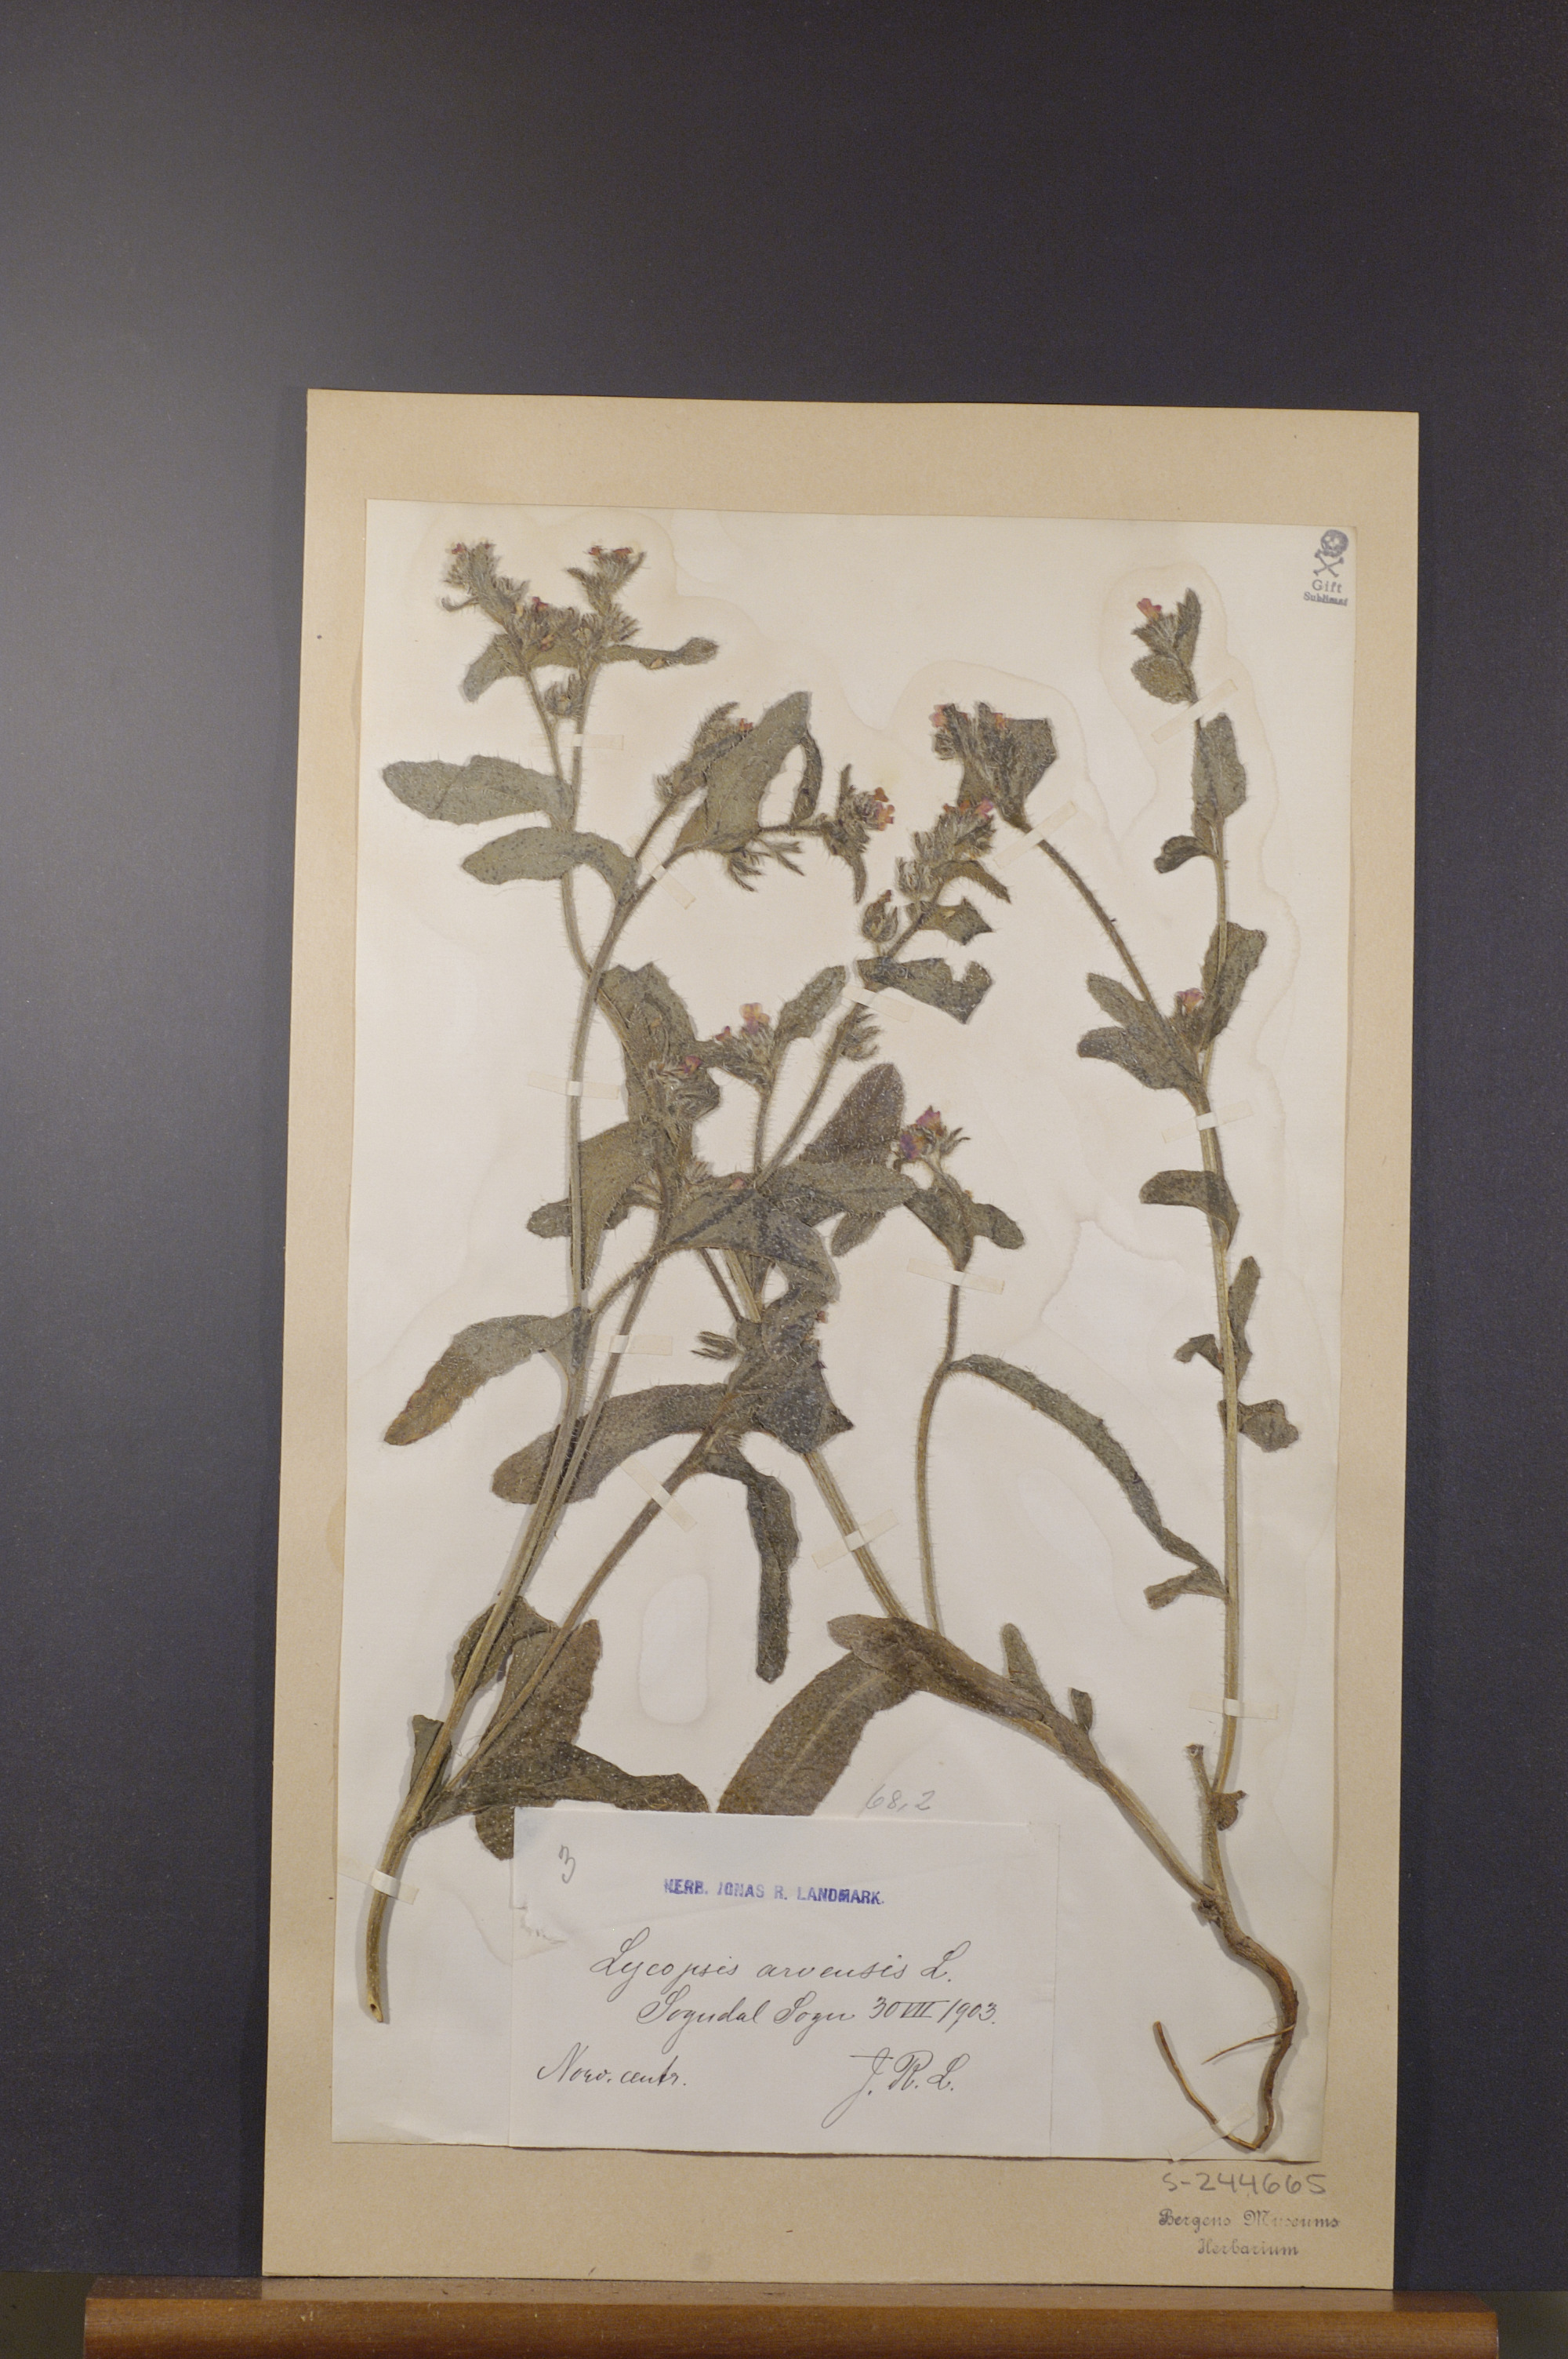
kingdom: Plantae
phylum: Tracheophyta
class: Magnoliopsida
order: Boraginales
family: Boraginaceae
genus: Lycopsis
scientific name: Lycopsis arvensis
